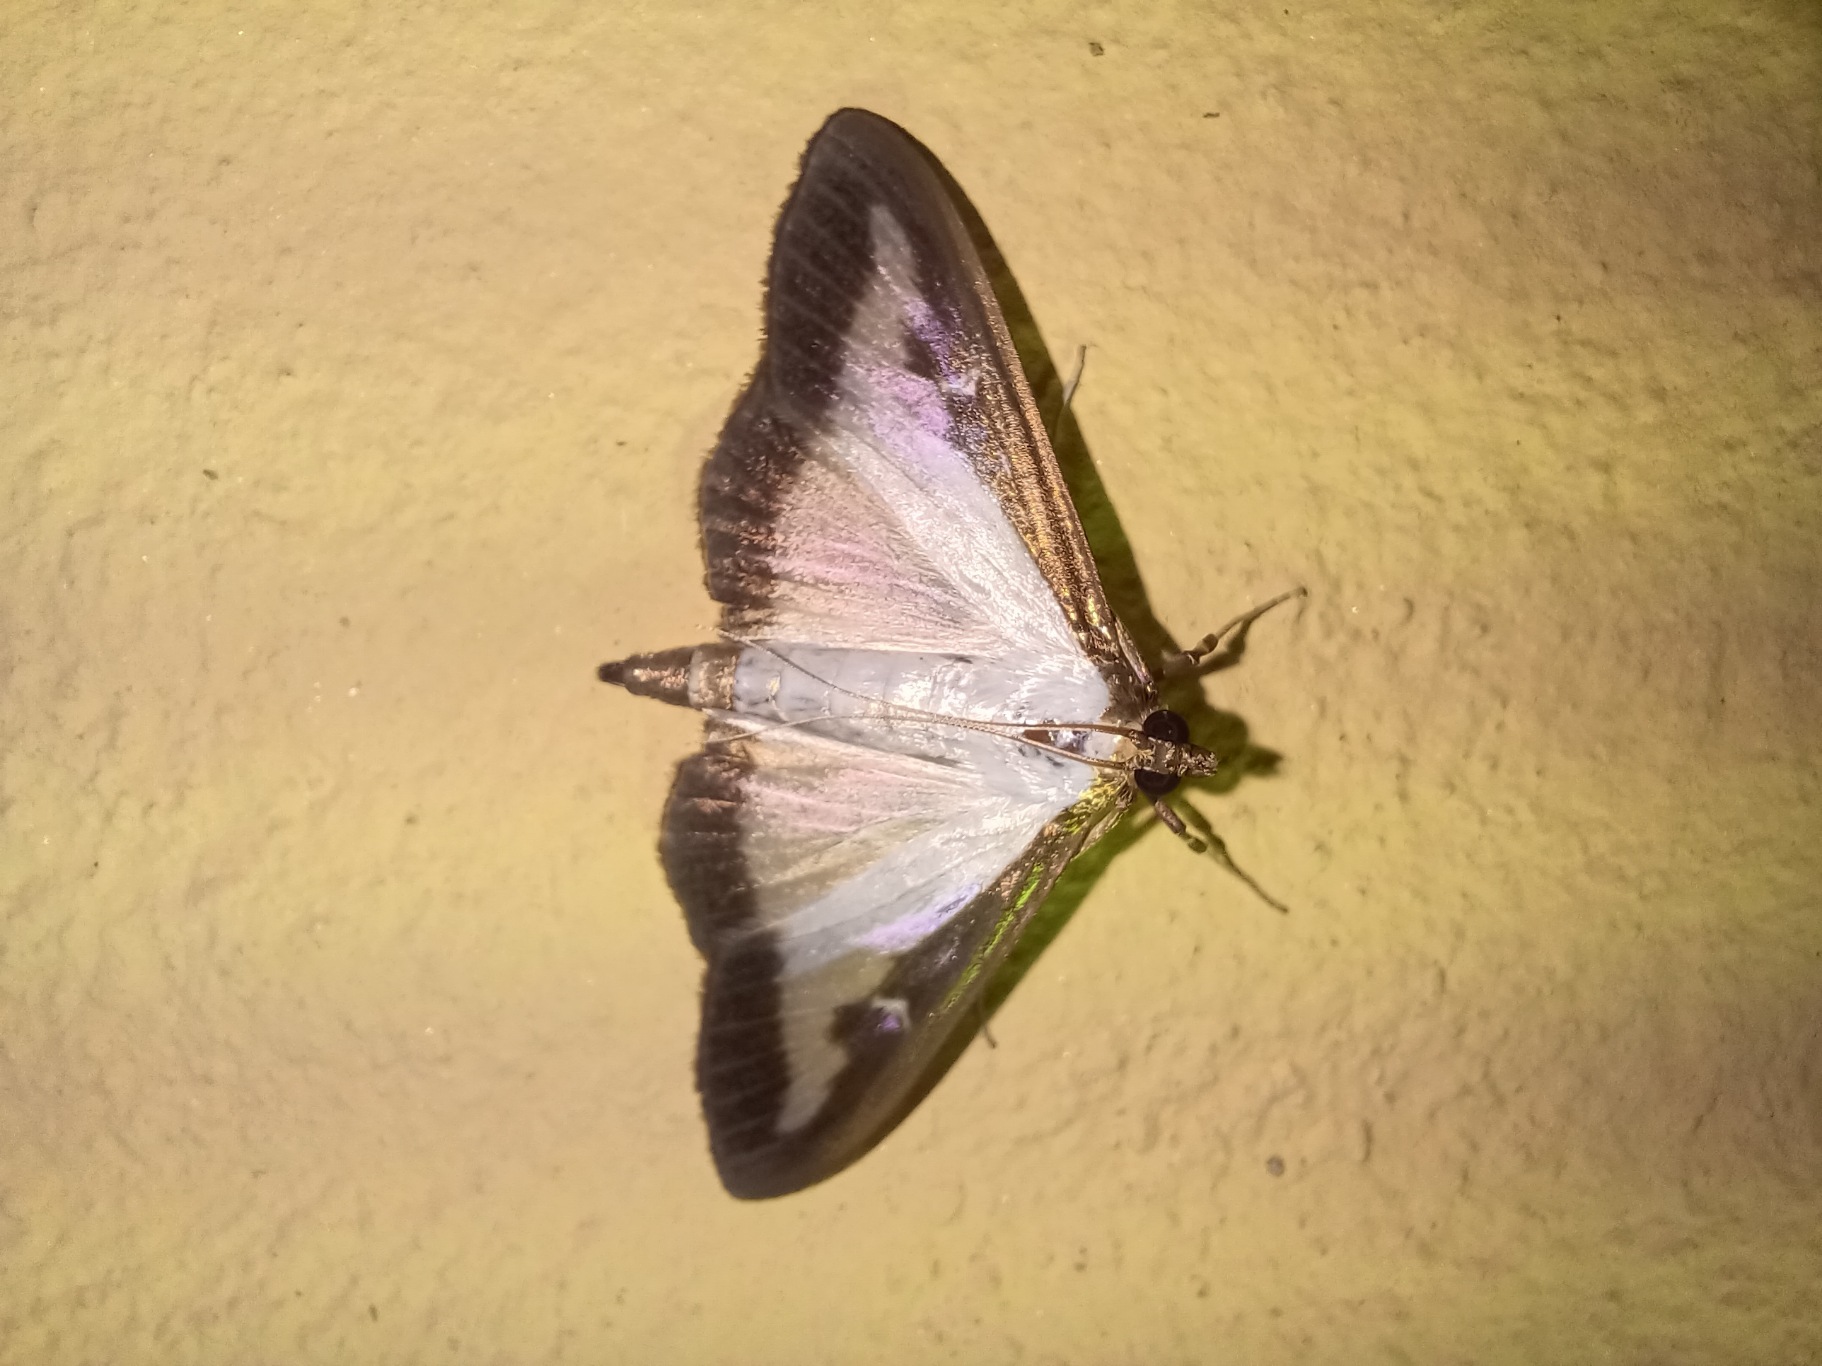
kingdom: Animalia
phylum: Arthropoda
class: Insecta
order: Lepidoptera
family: Crambidae
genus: Cydalima
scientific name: Cydalima perspectalis
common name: Buksbomhalvmøl
